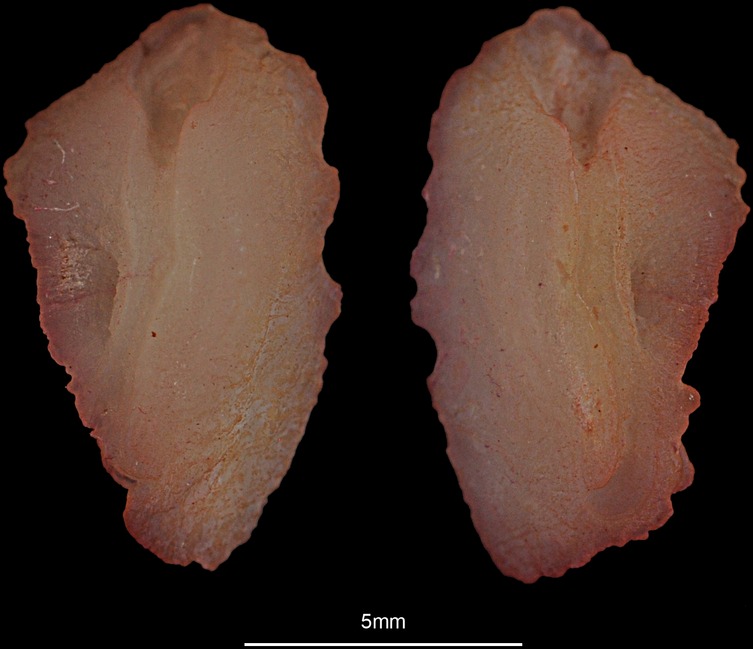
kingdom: Animalia
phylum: Chordata
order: Mugiliformes
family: Mugilidae
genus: Chelon
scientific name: Chelon labrosus
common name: Thick-lipped mullet
